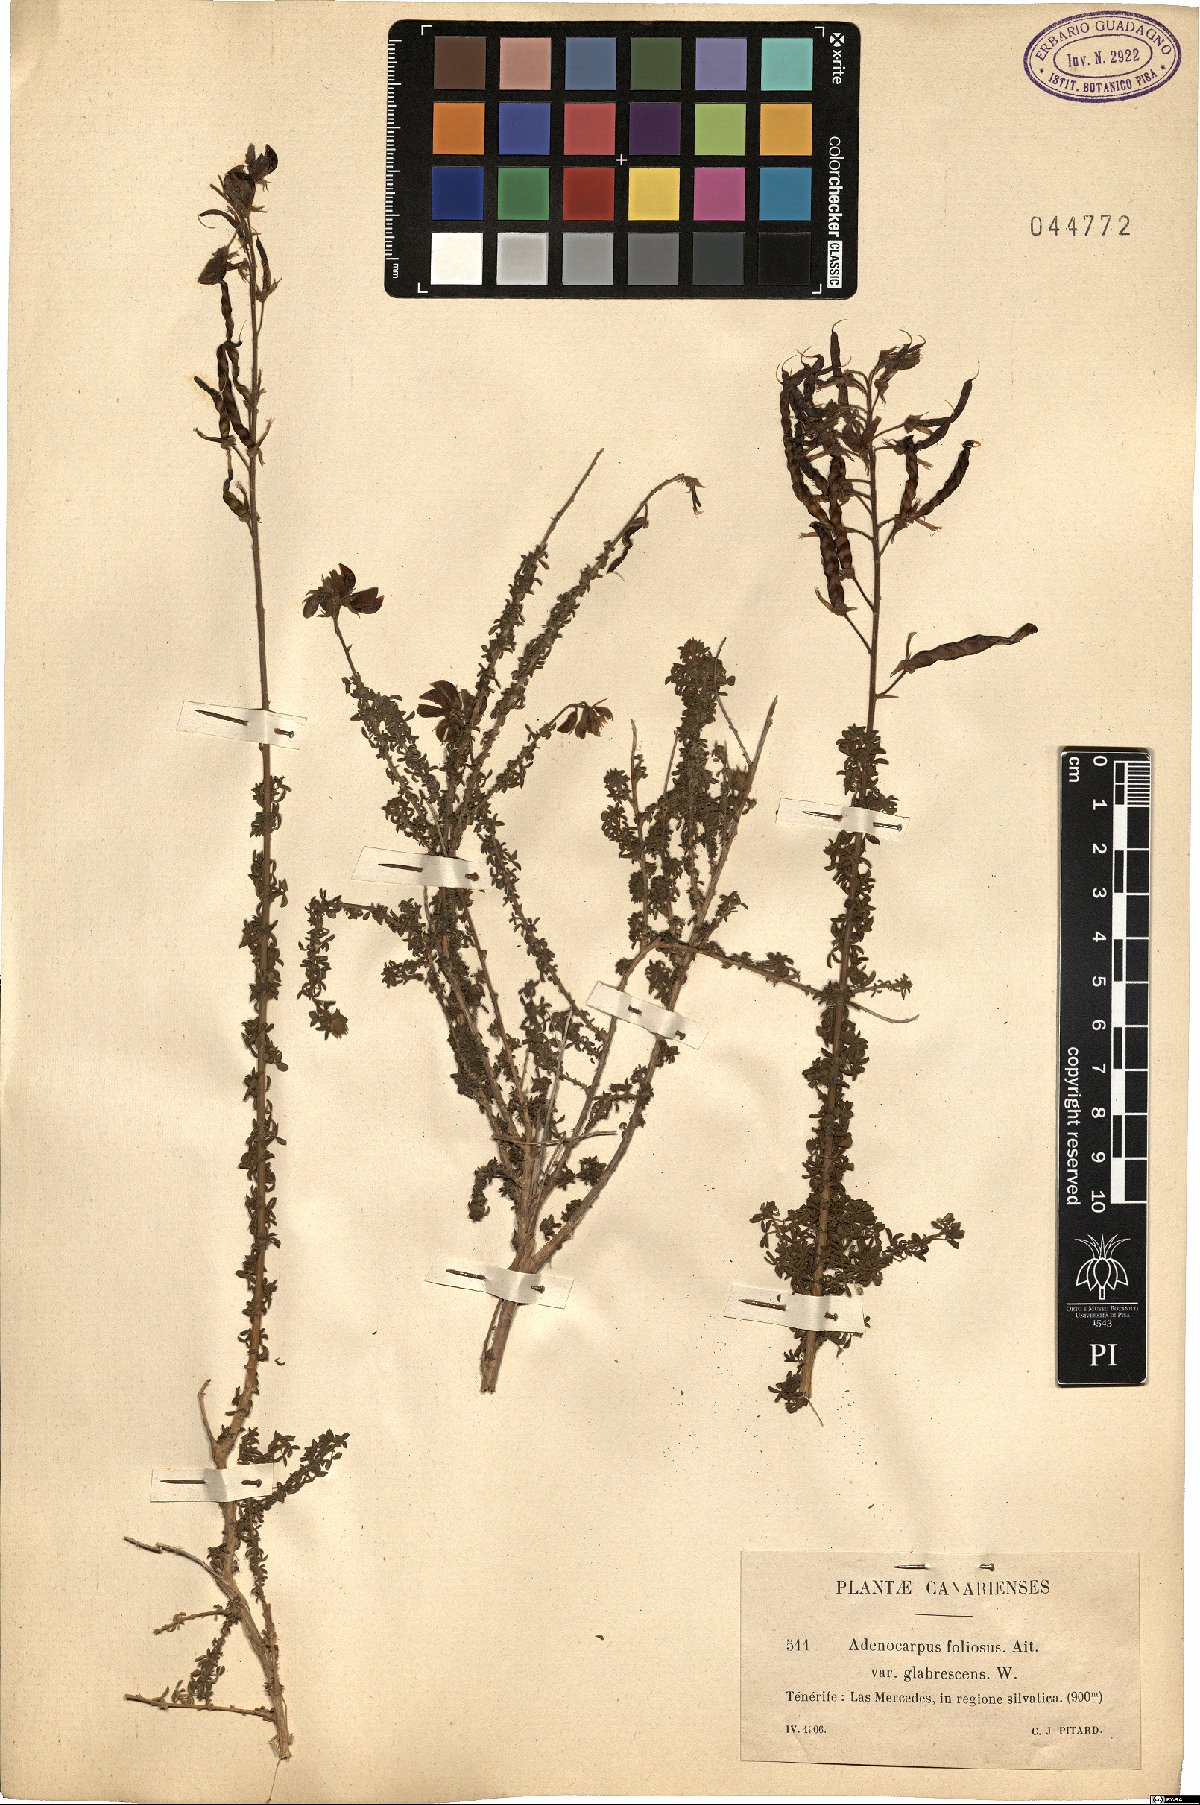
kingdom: Plantae
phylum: Tracheophyta
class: Magnoliopsida
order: Fabales
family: Fabaceae
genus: Adenocarpus
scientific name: Adenocarpus foliolosus
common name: Canary island flatpod
